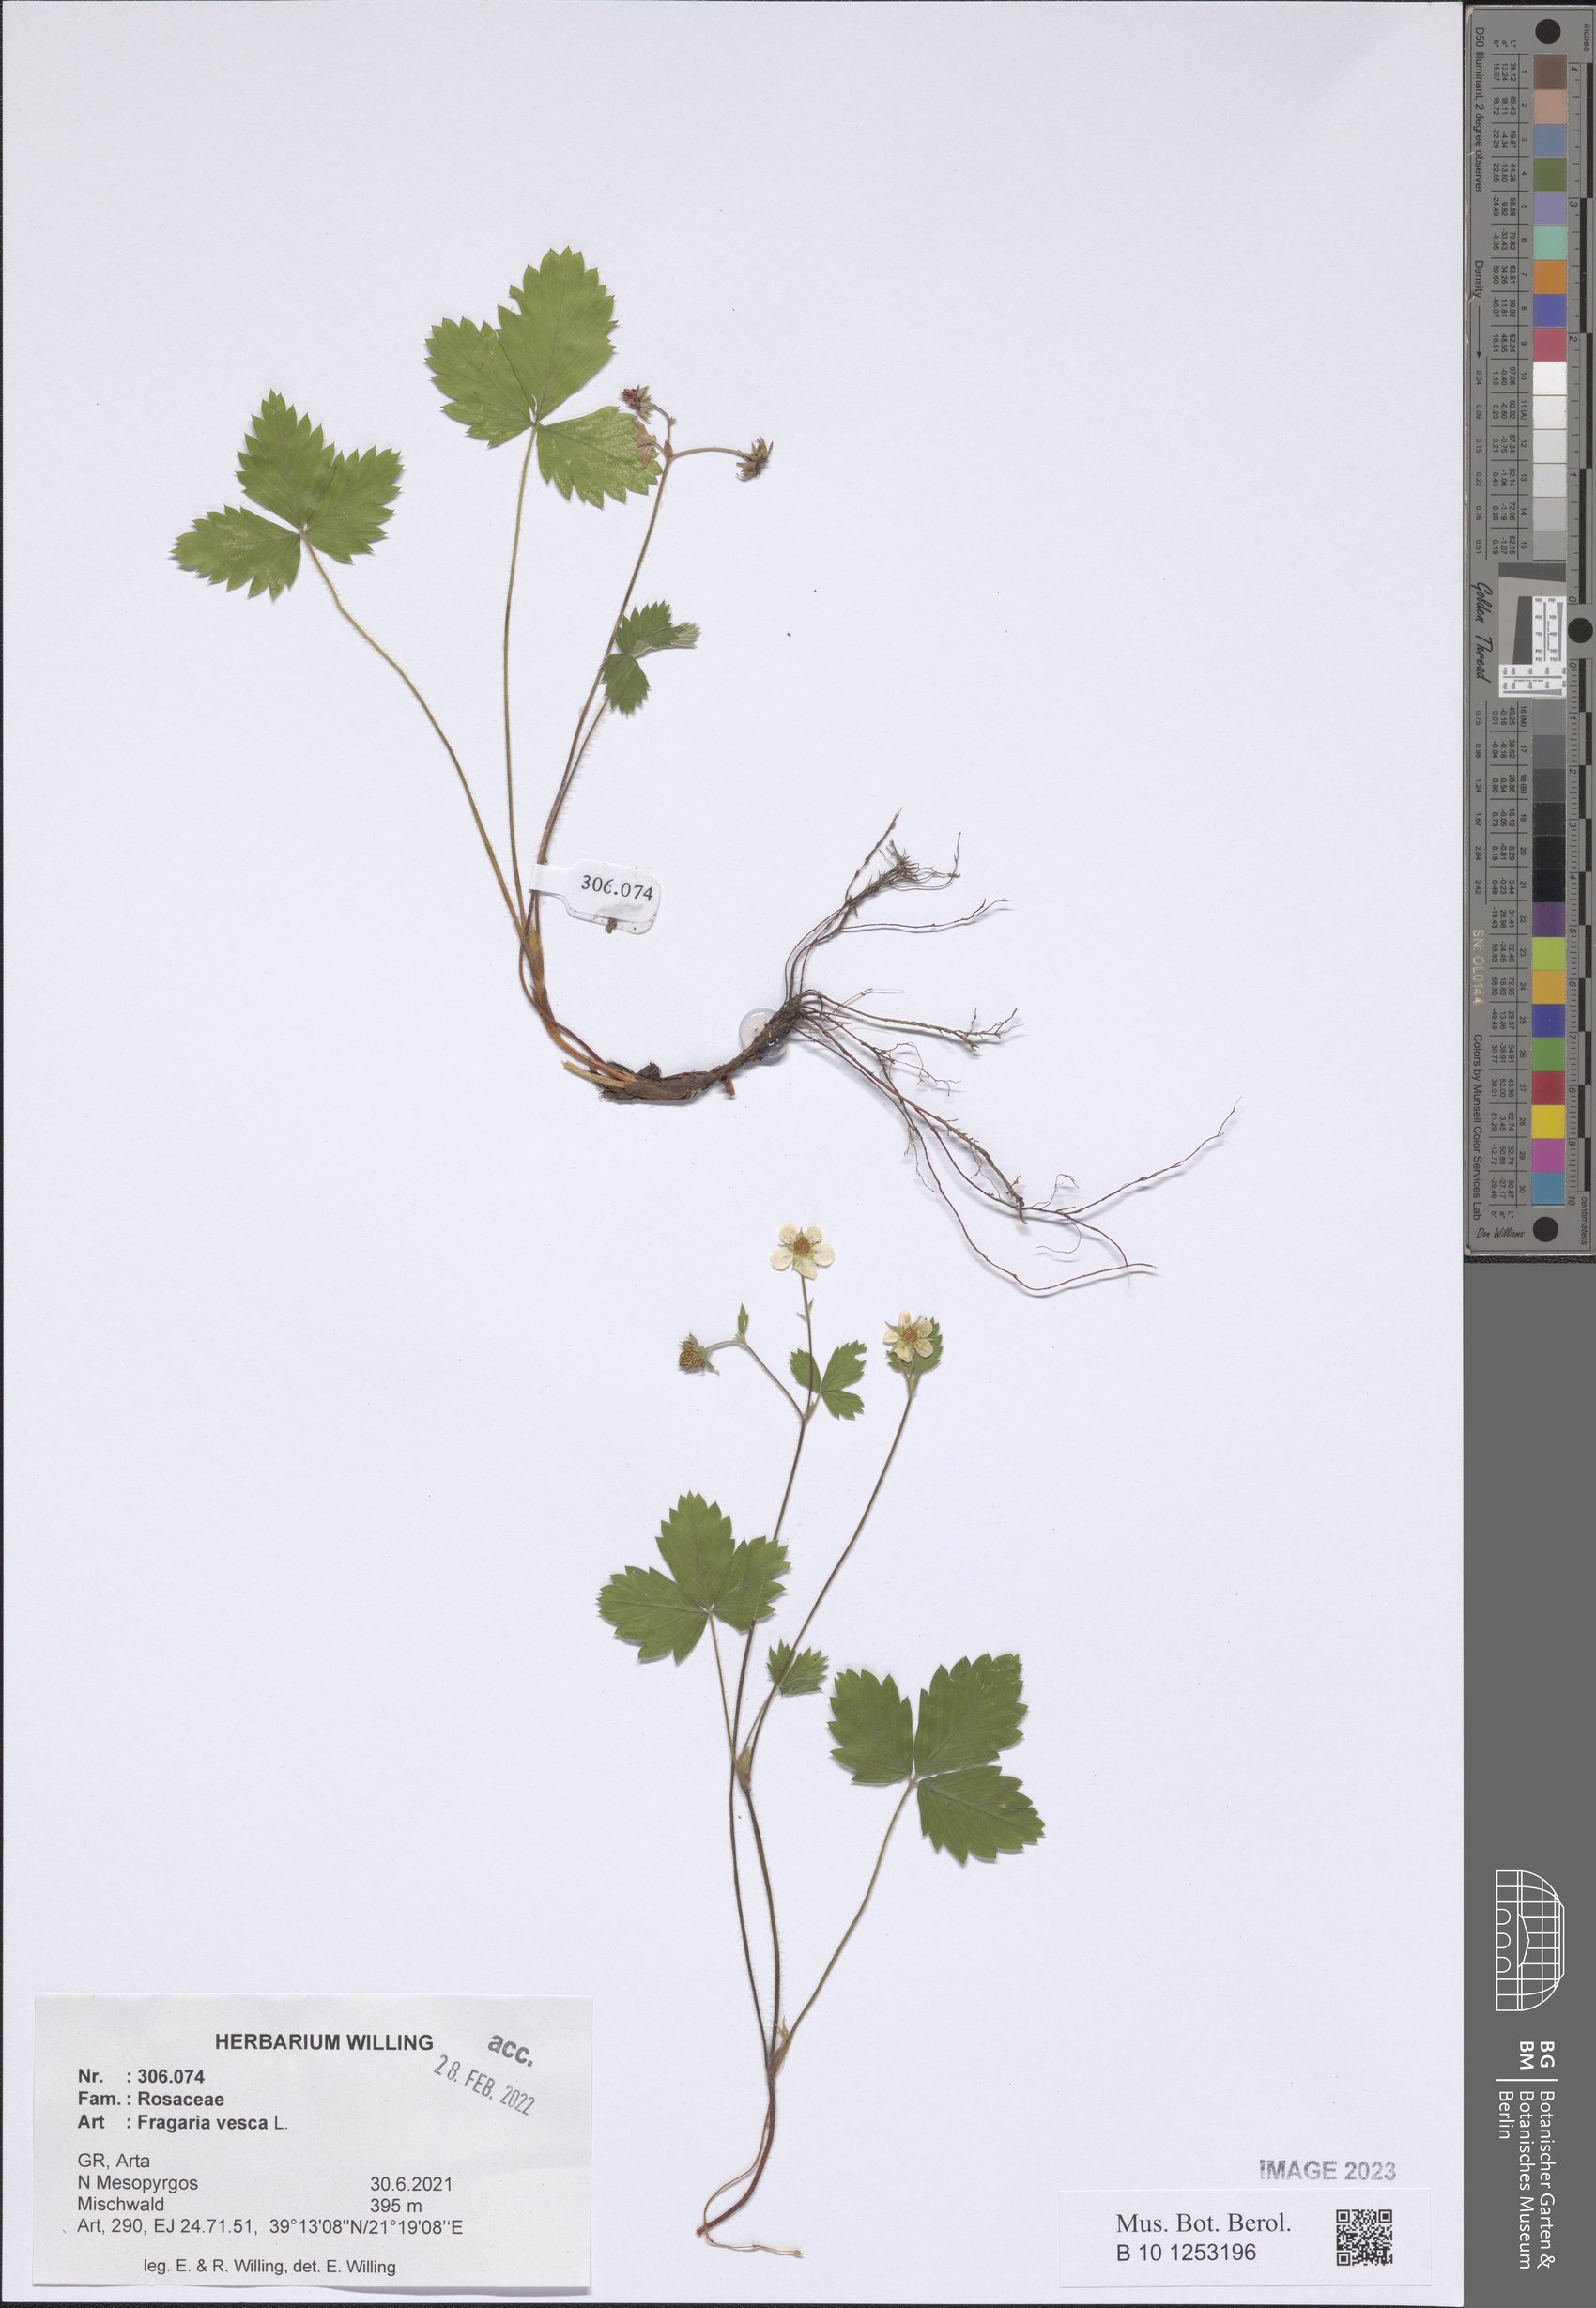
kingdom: Plantae
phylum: Tracheophyta
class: Magnoliopsida
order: Rosales
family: Rosaceae
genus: Fragaria
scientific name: Fragaria vesca
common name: Wild strawberry
